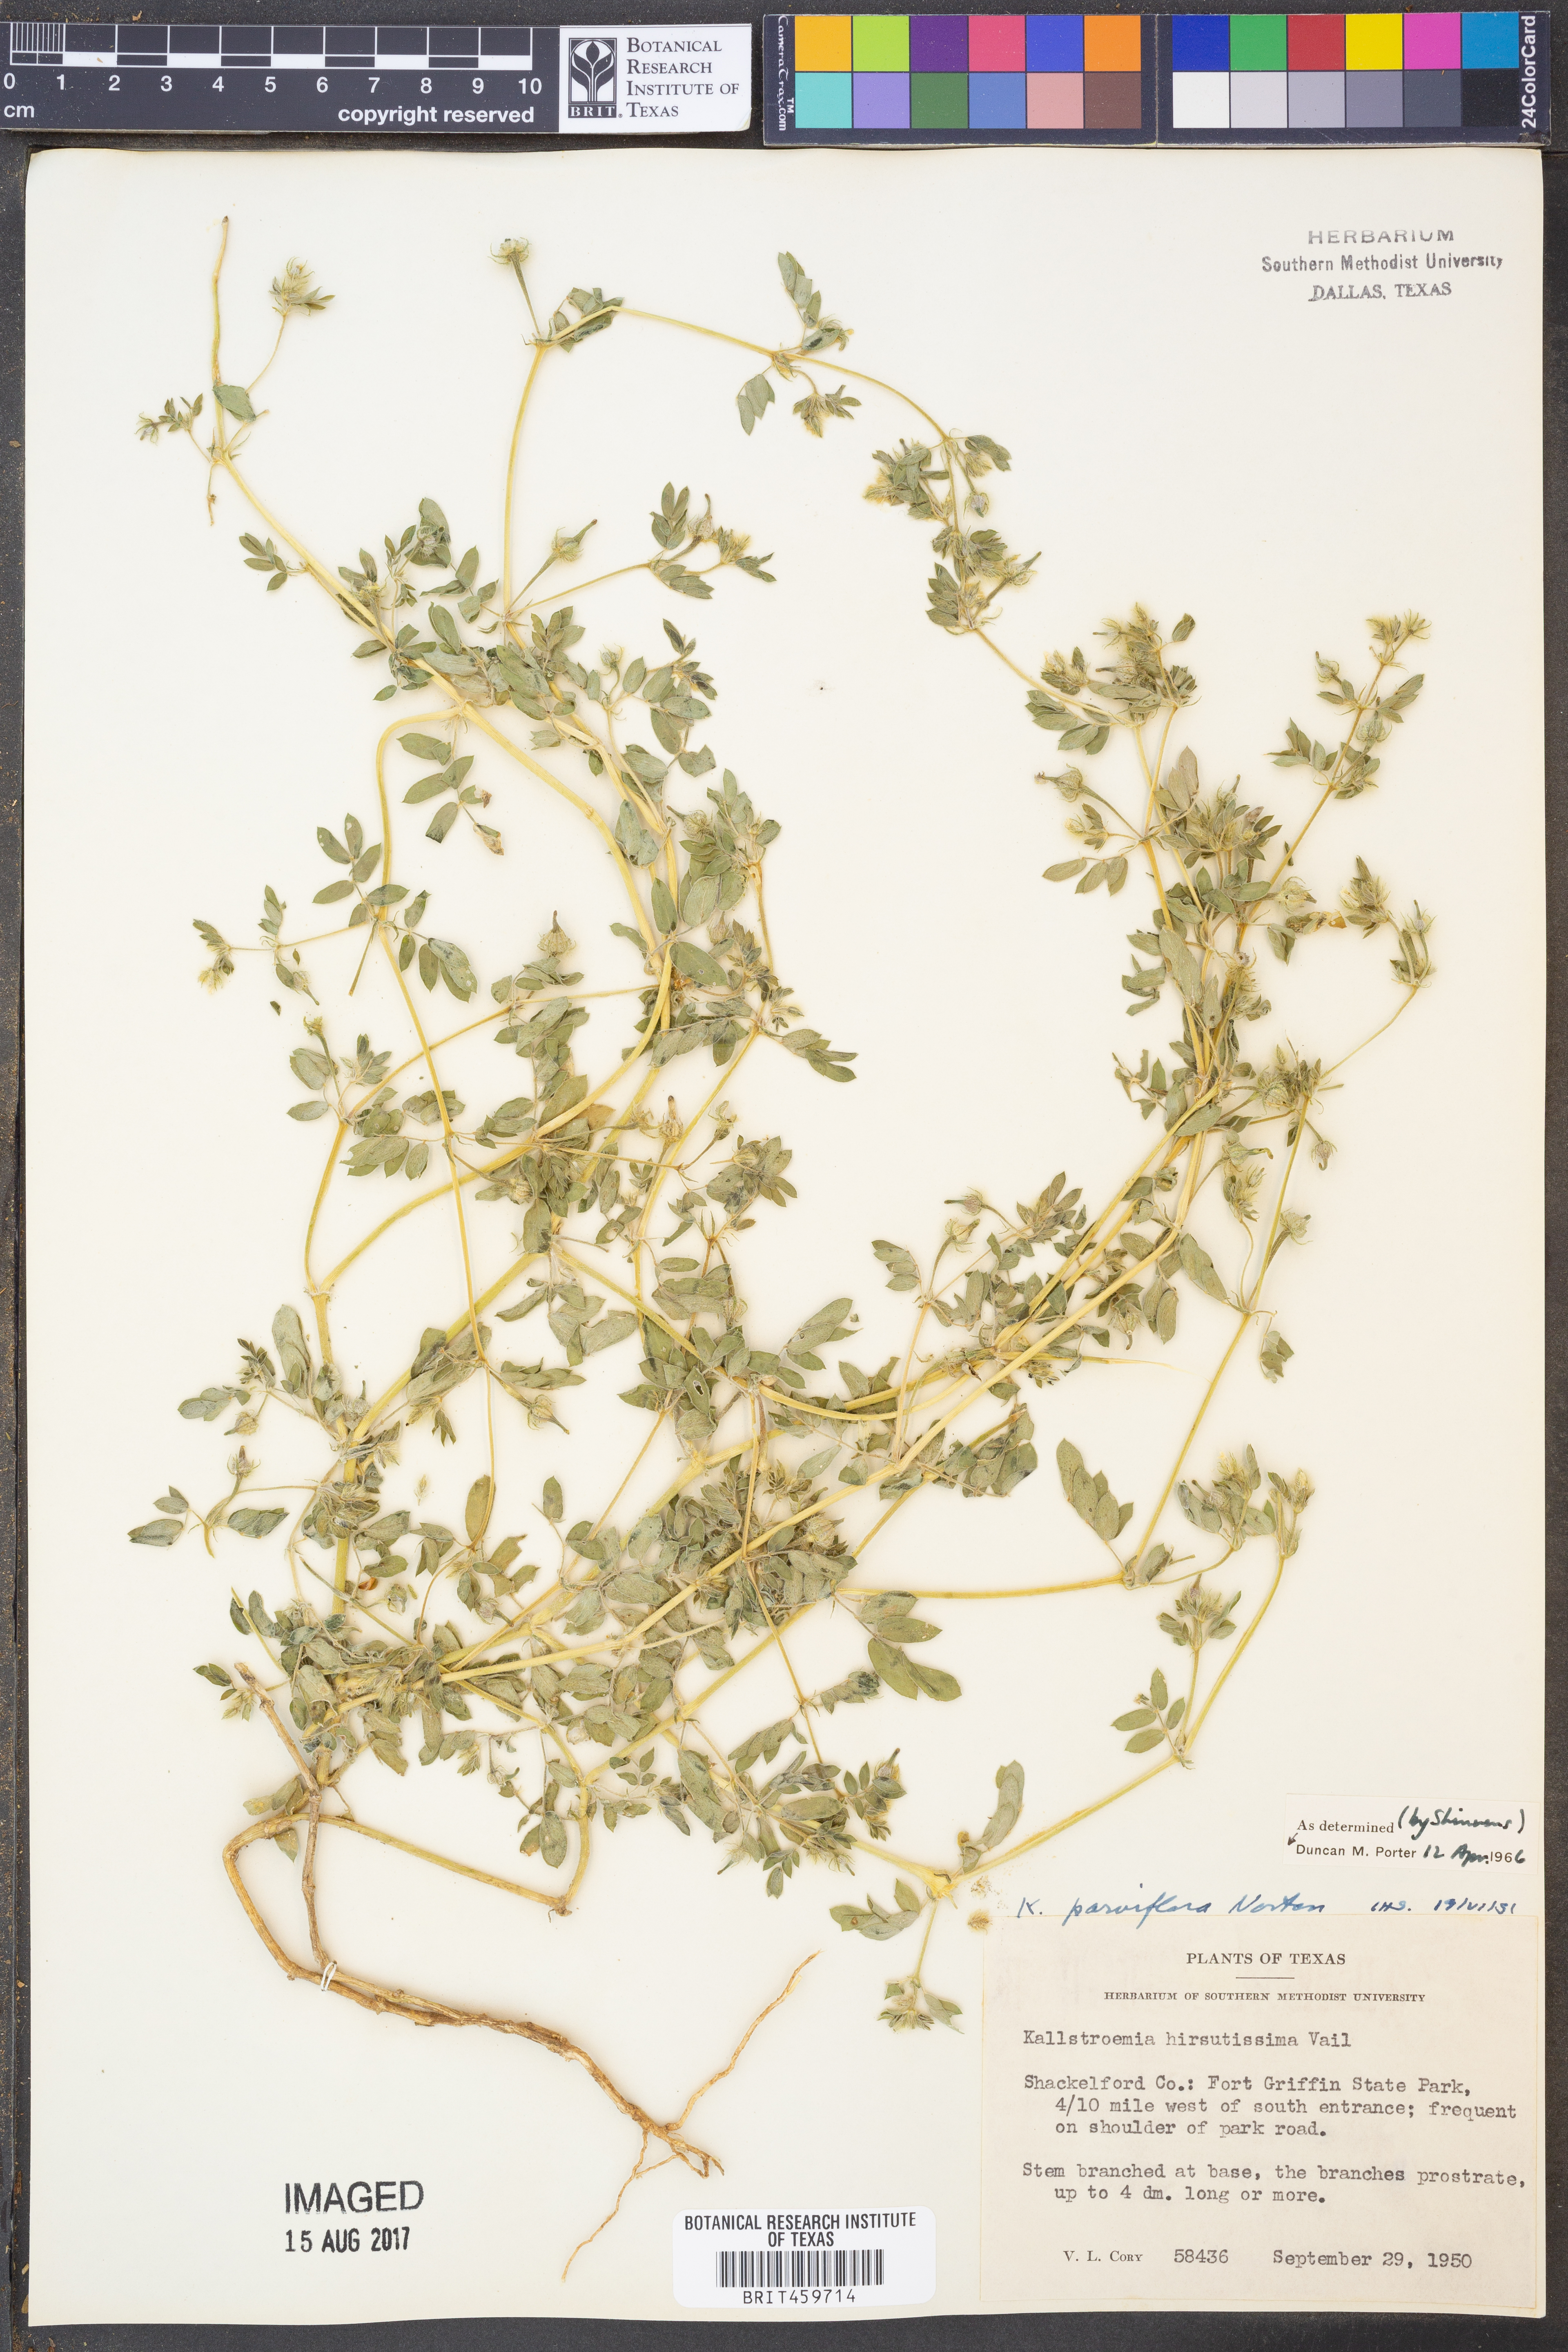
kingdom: Plantae
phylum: Tracheophyta
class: Magnoliopsida
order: Zygophyllales
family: Zygophyllaceae
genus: Kallstroemia
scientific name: Kallstroemia parviflora
